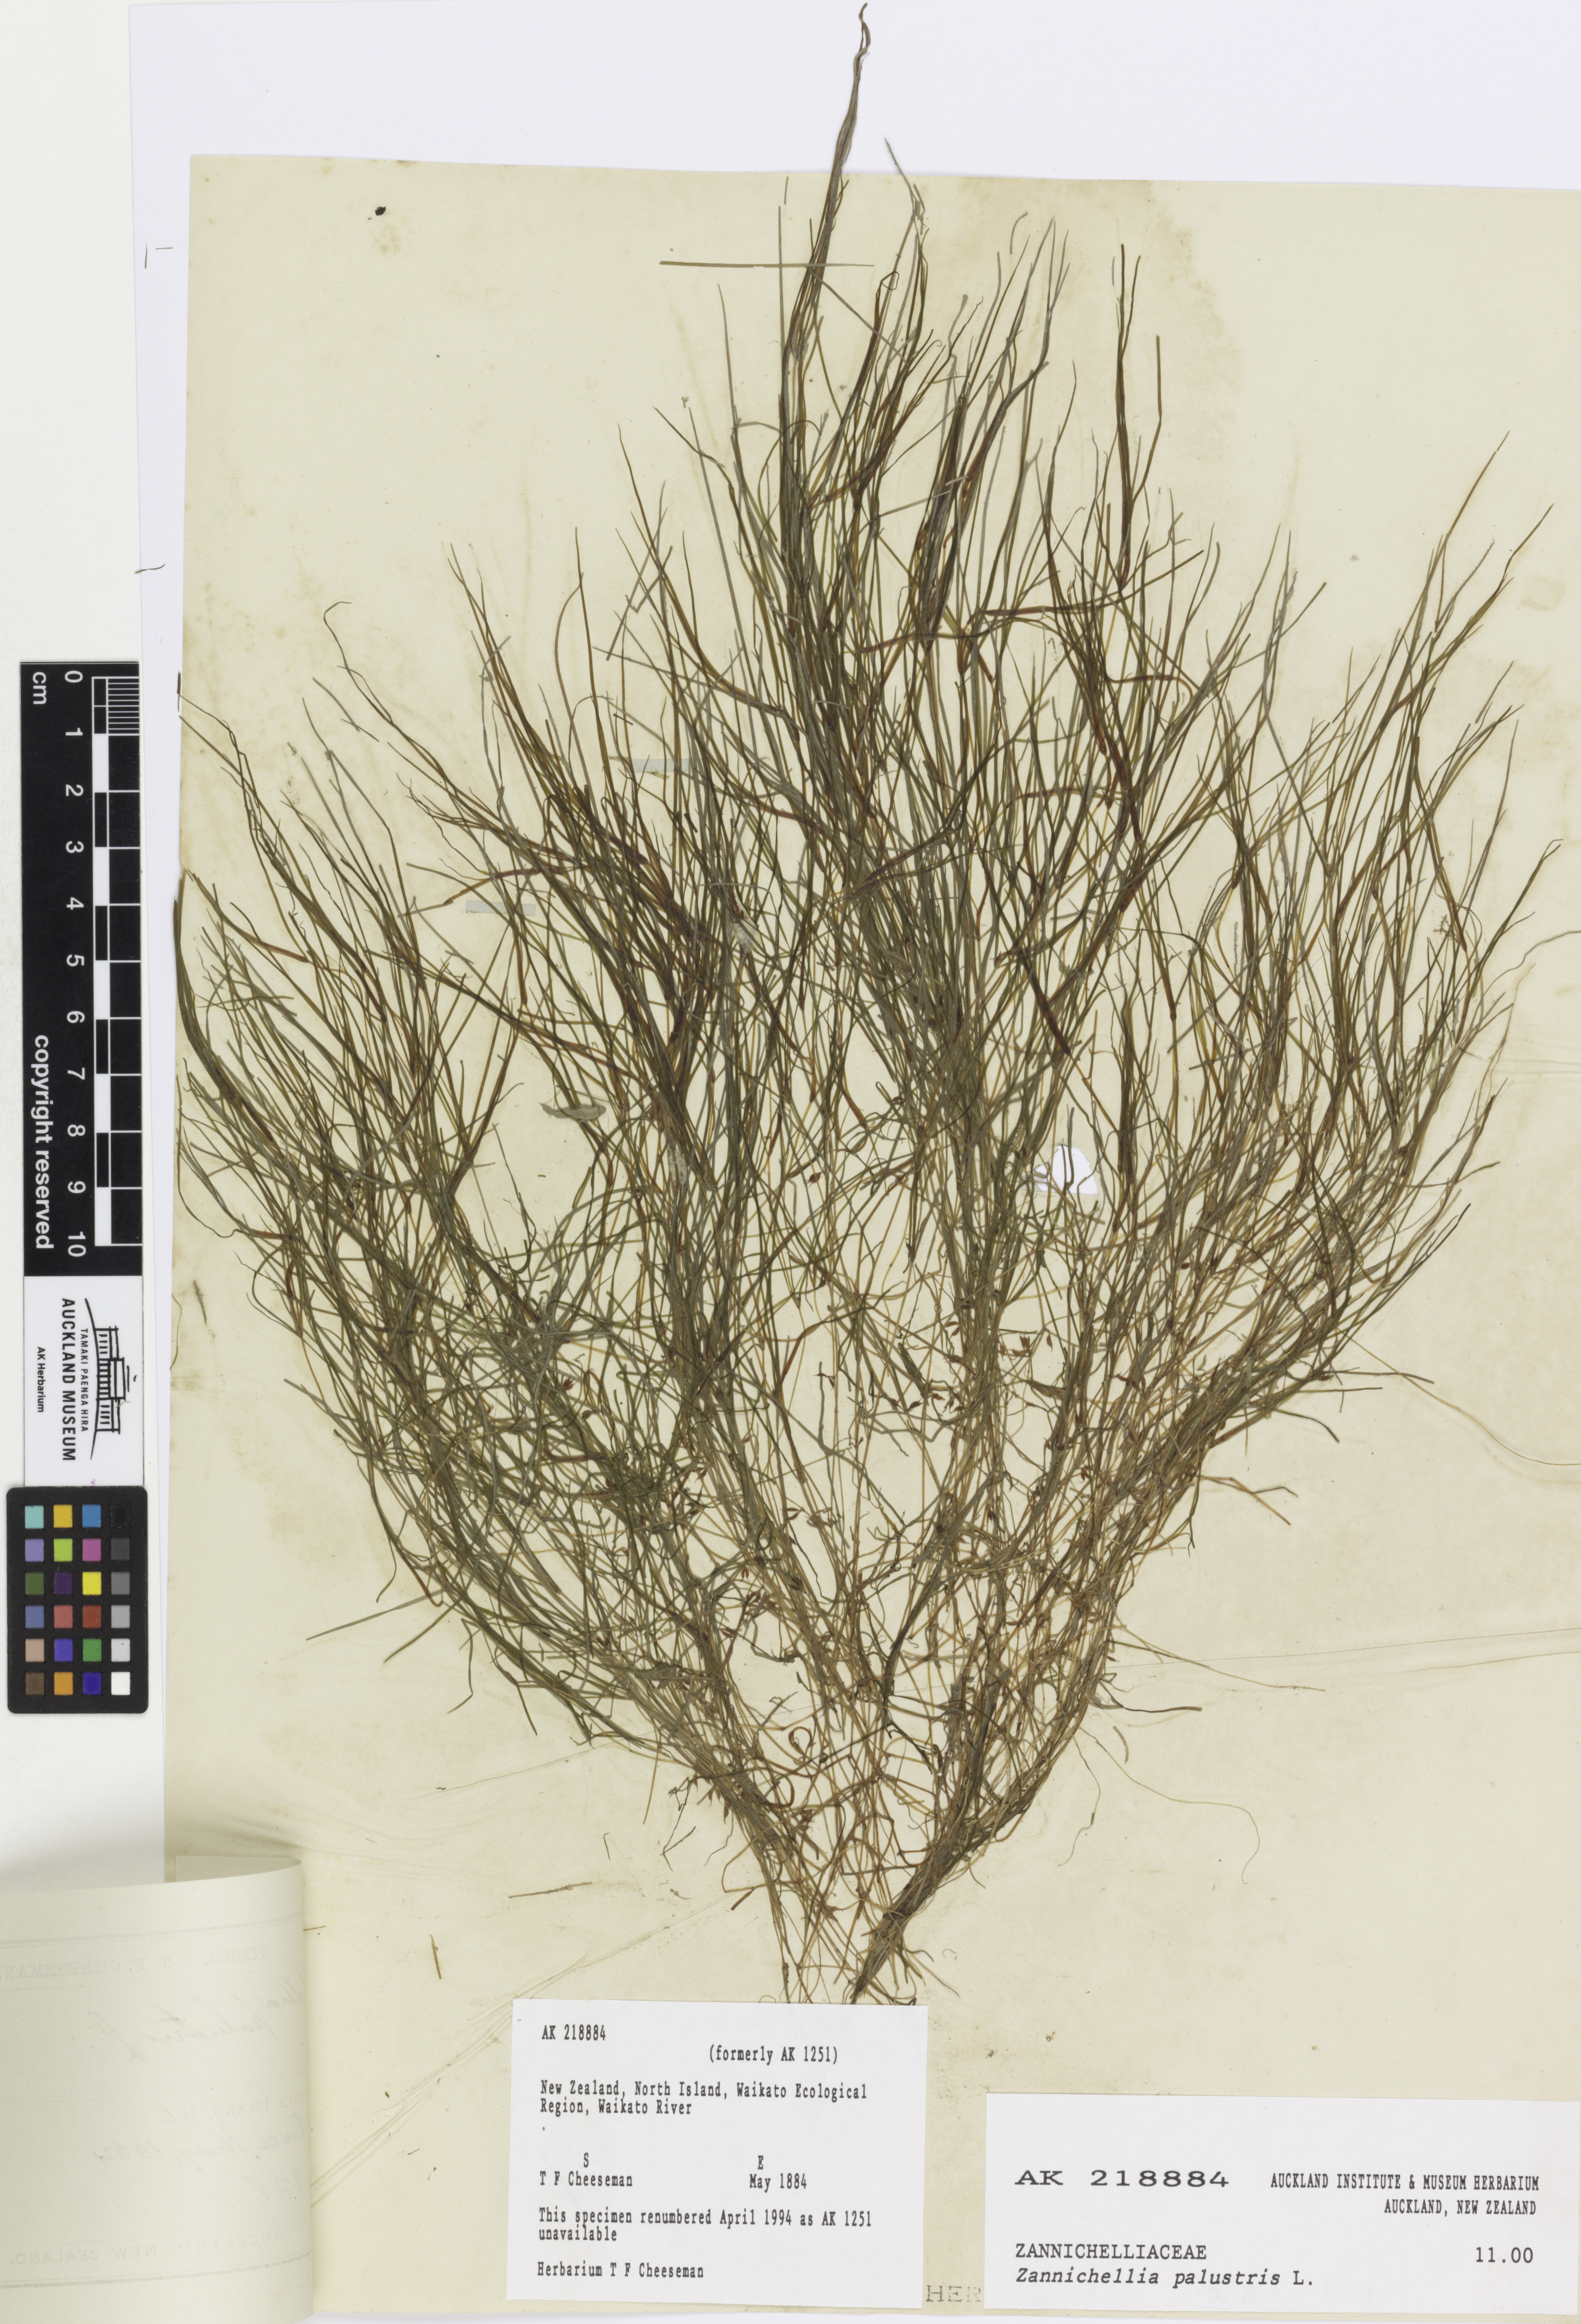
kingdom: Plantae
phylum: Tracheophyta
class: Liliopsida
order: Alismatales
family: Potamogetonaceae
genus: Zannichellia
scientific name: Zannichellia palustris
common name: Horned pondweed
